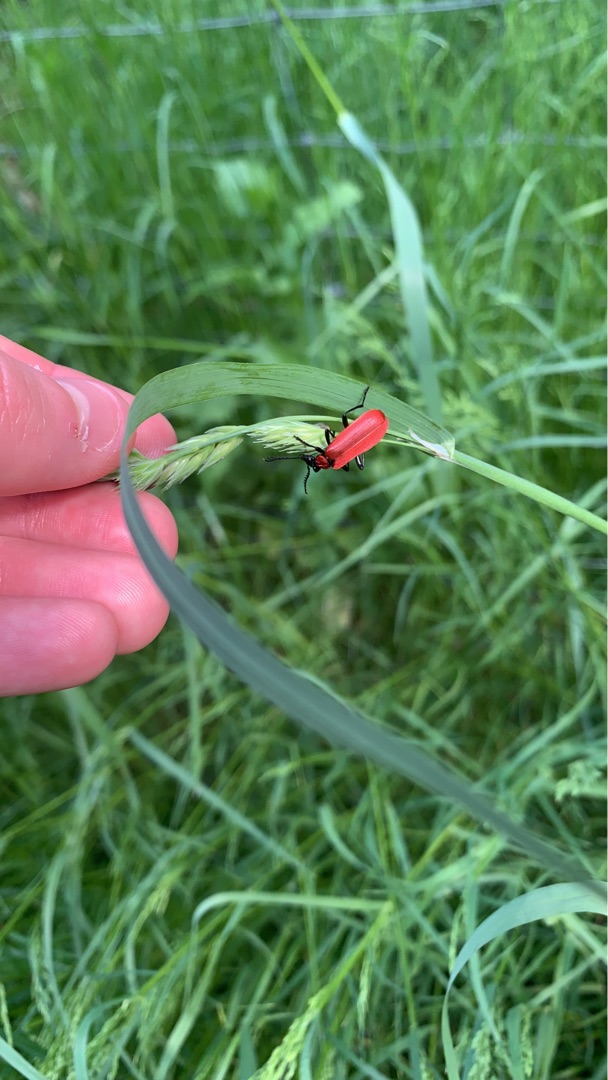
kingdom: Animalia
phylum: Arthropoda
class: Insecta
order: Coleoptera
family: Pyrochroidae
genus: Pyrochroa
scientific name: Pyrochroa coccinea
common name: Sorthovedet kardinalbille
